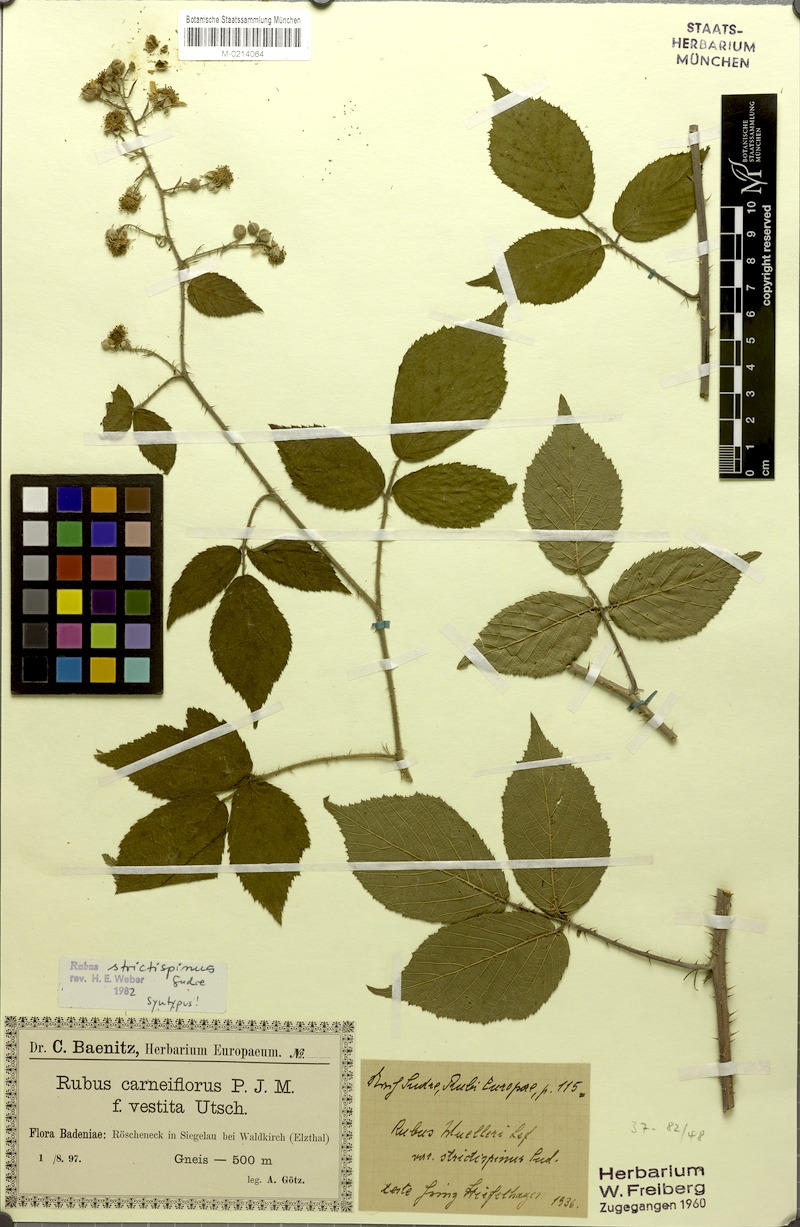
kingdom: Plantae
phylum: Tracheophyta
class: Magnoliopsida
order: Rosales
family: Rosaceae
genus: Rubus
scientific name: Rubus strictispinus
